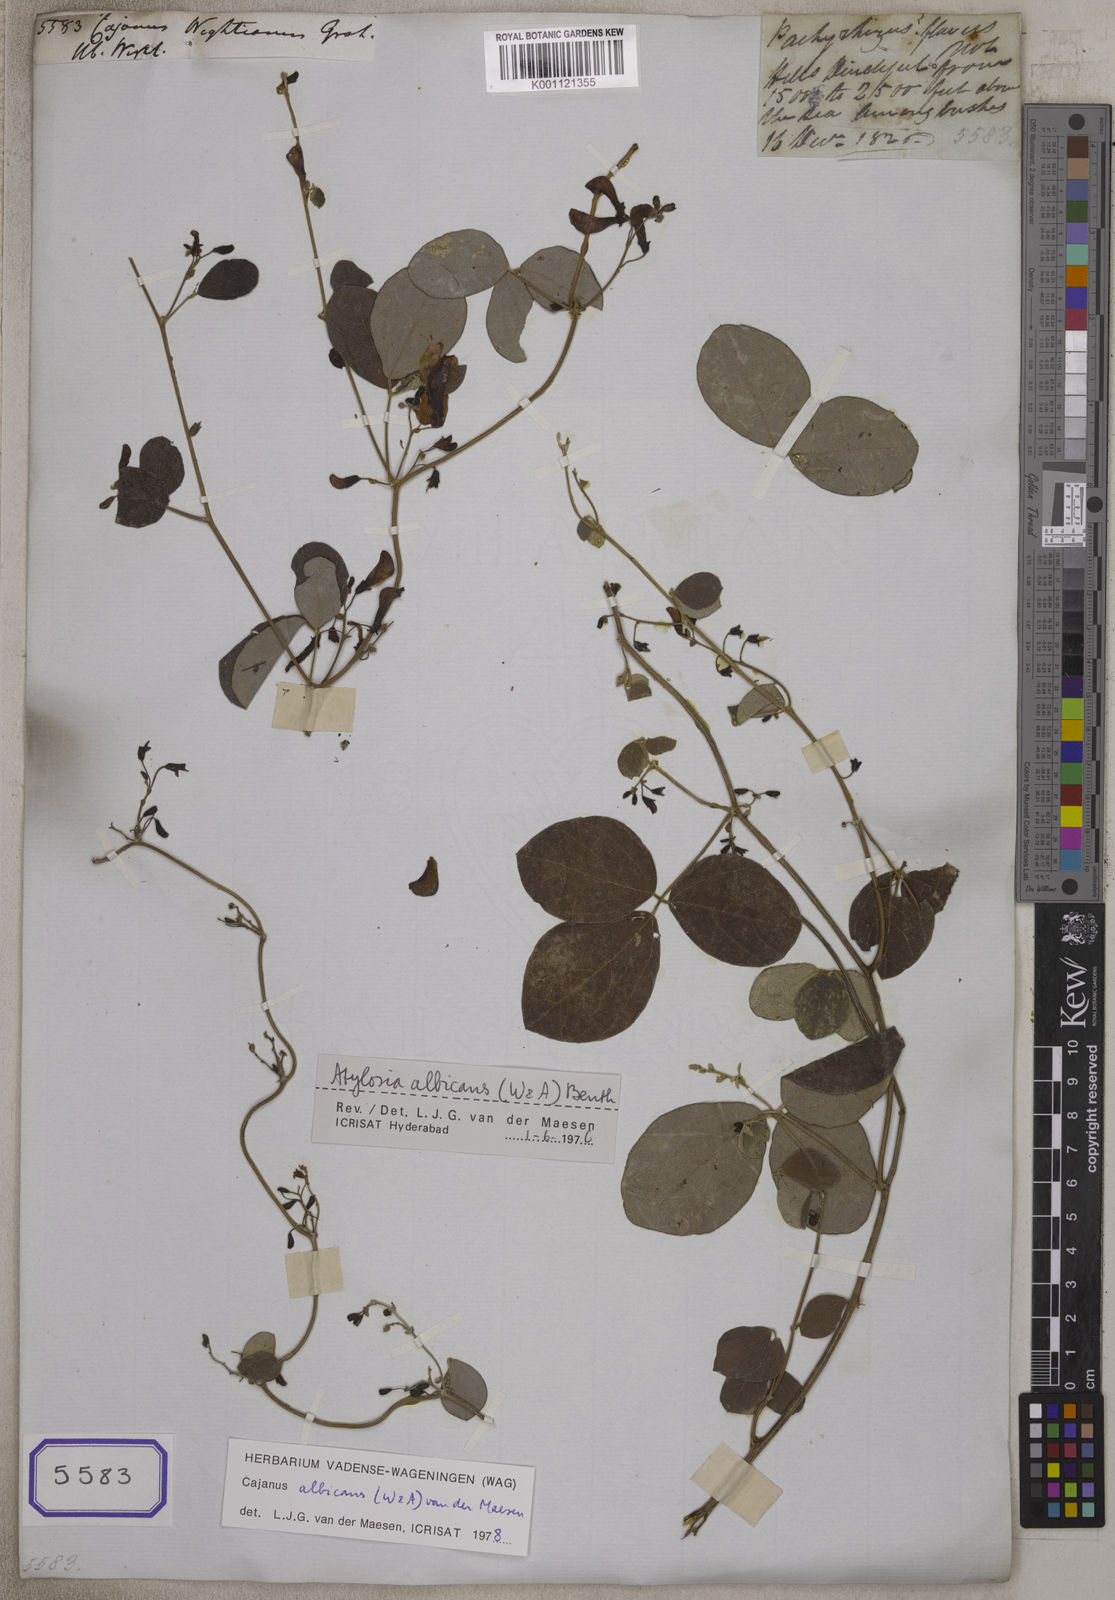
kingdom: Plantae
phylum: Tracheophyta
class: Magnoliopsida
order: Fabales
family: Fabaceae
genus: Cajanus
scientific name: Cajanus albicans
